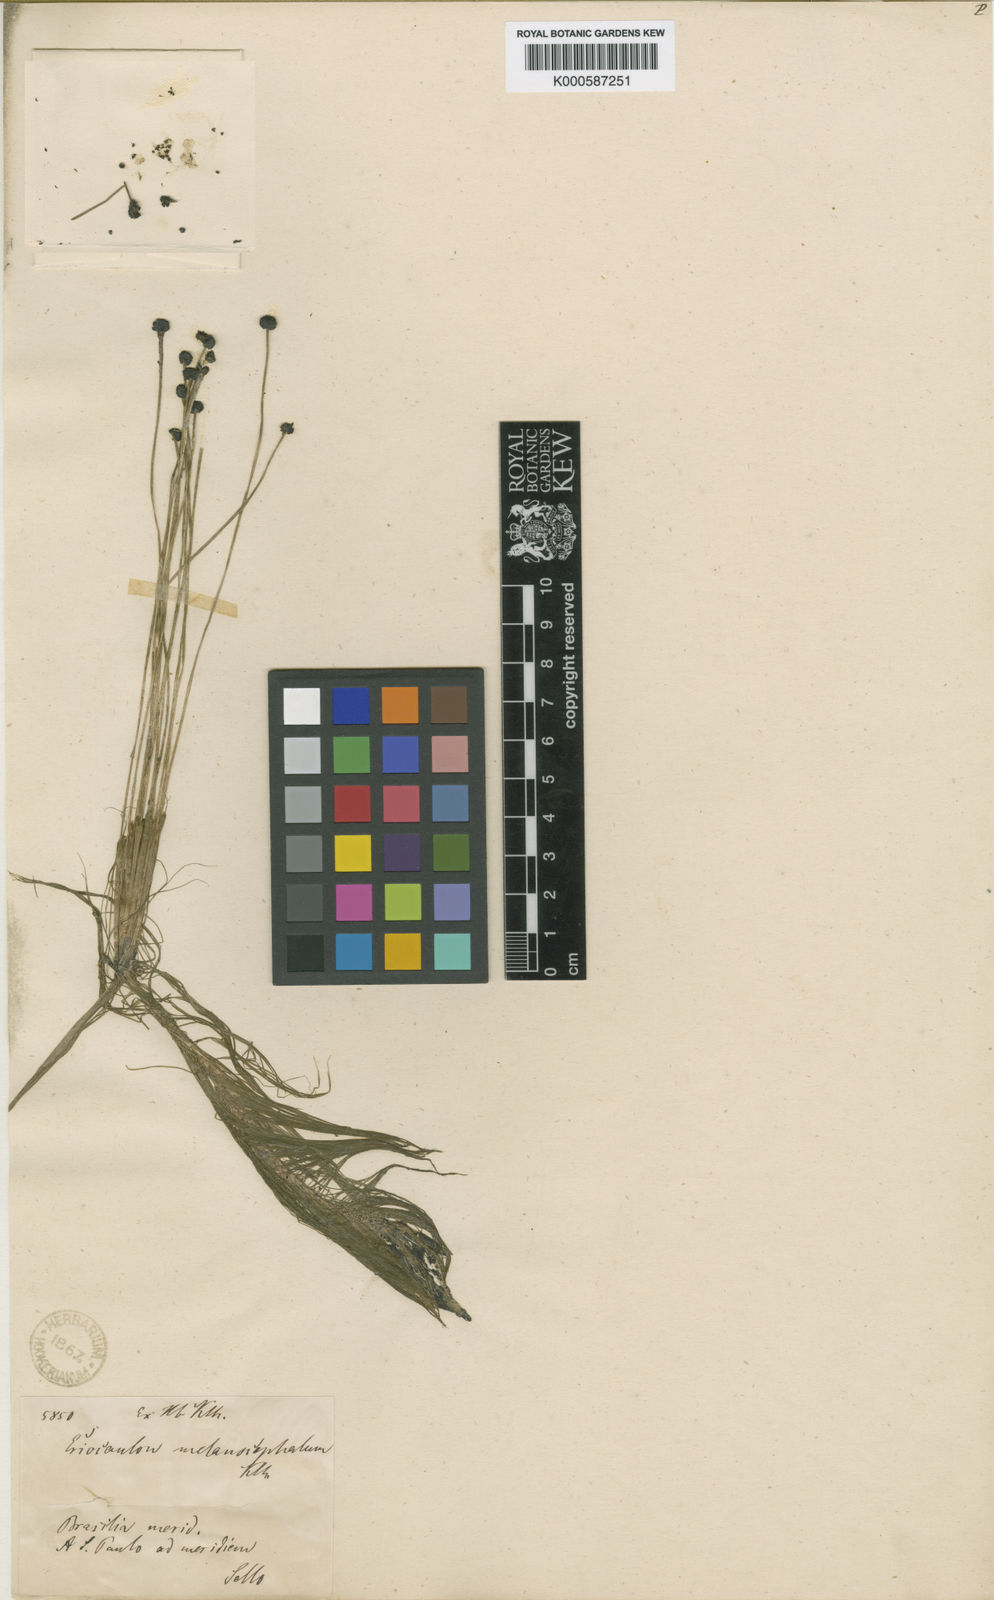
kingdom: Plantae
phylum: Tracheophyta
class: Liliopsida
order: Poales
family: Eriocaulaceae
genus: Eriocaulon
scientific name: Eriocaulon melanocephalum
